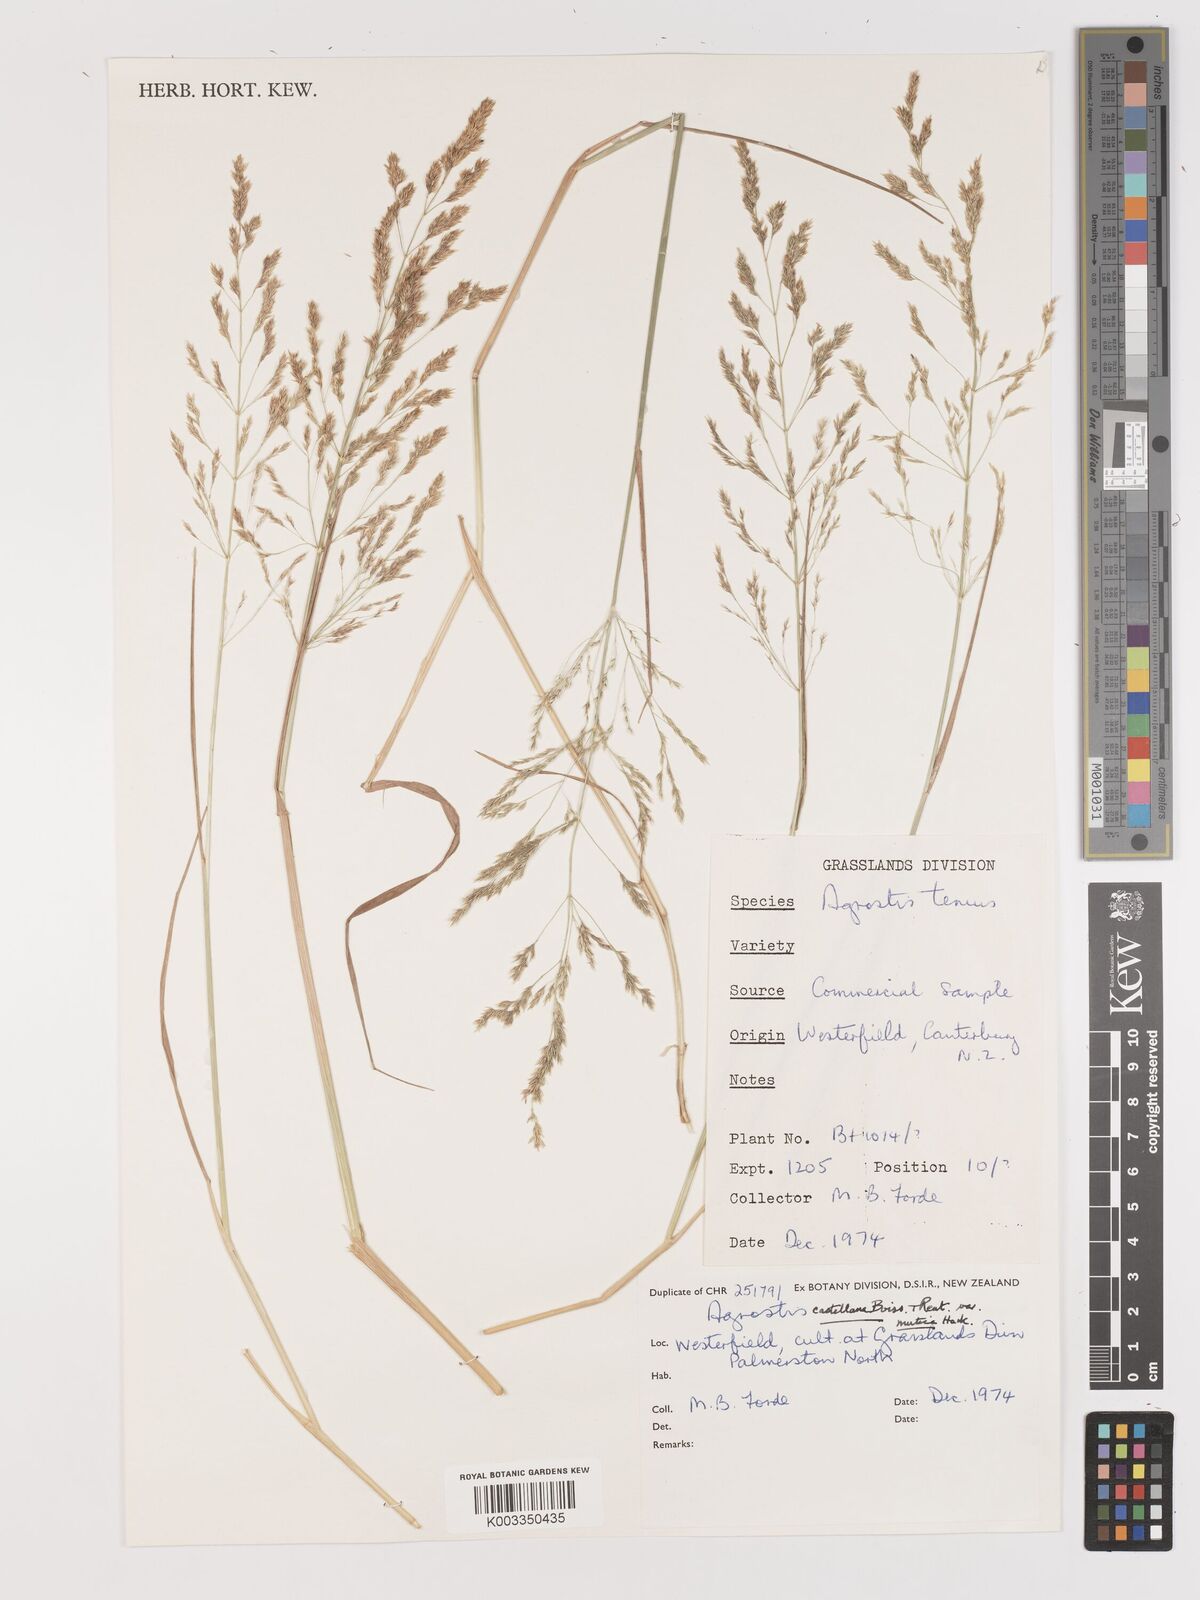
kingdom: Plantae
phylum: Tracheophyta
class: Liliopsida
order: Poales
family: Poaceae
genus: Agrostis
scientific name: Agrostis castellana
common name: Highland bent
